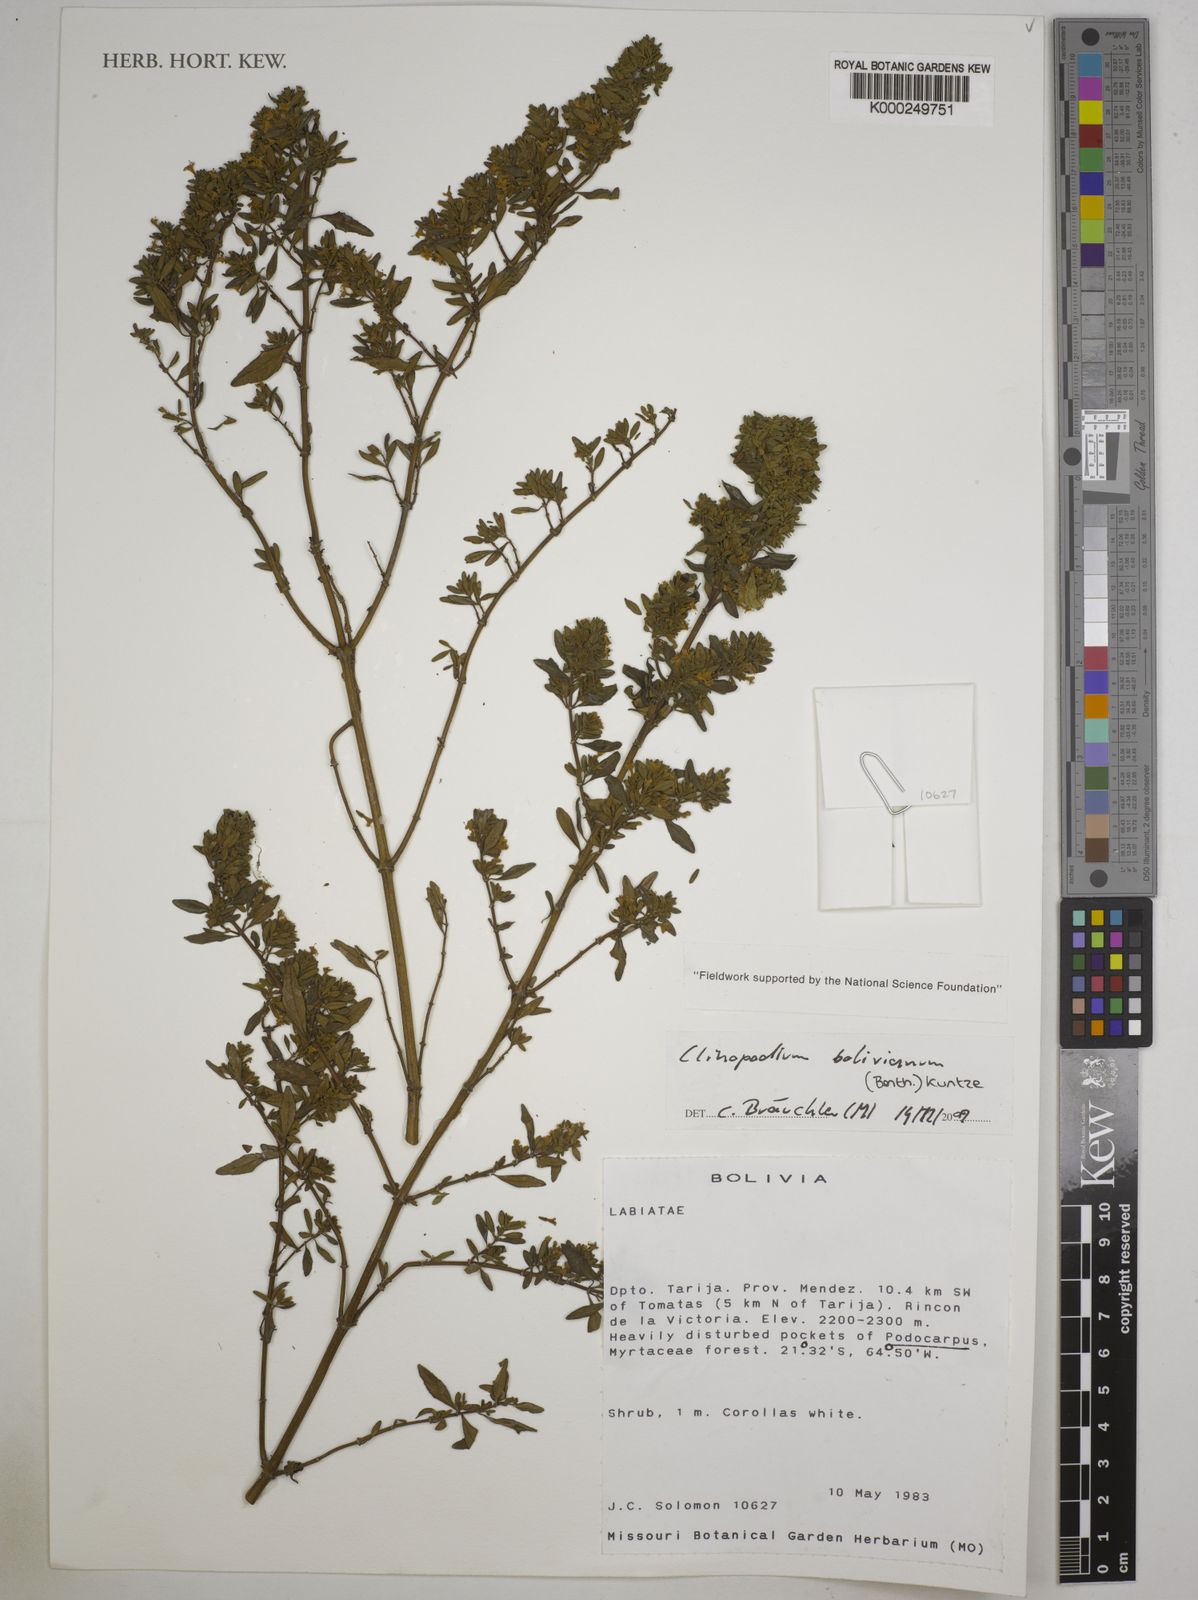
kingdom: Plantae
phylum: Tracheophyta
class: Magnoliopsida
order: Lamiales
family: Lamiaceae
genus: Clinopodium
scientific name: Clinopodium bolivianum
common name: Inca muña
